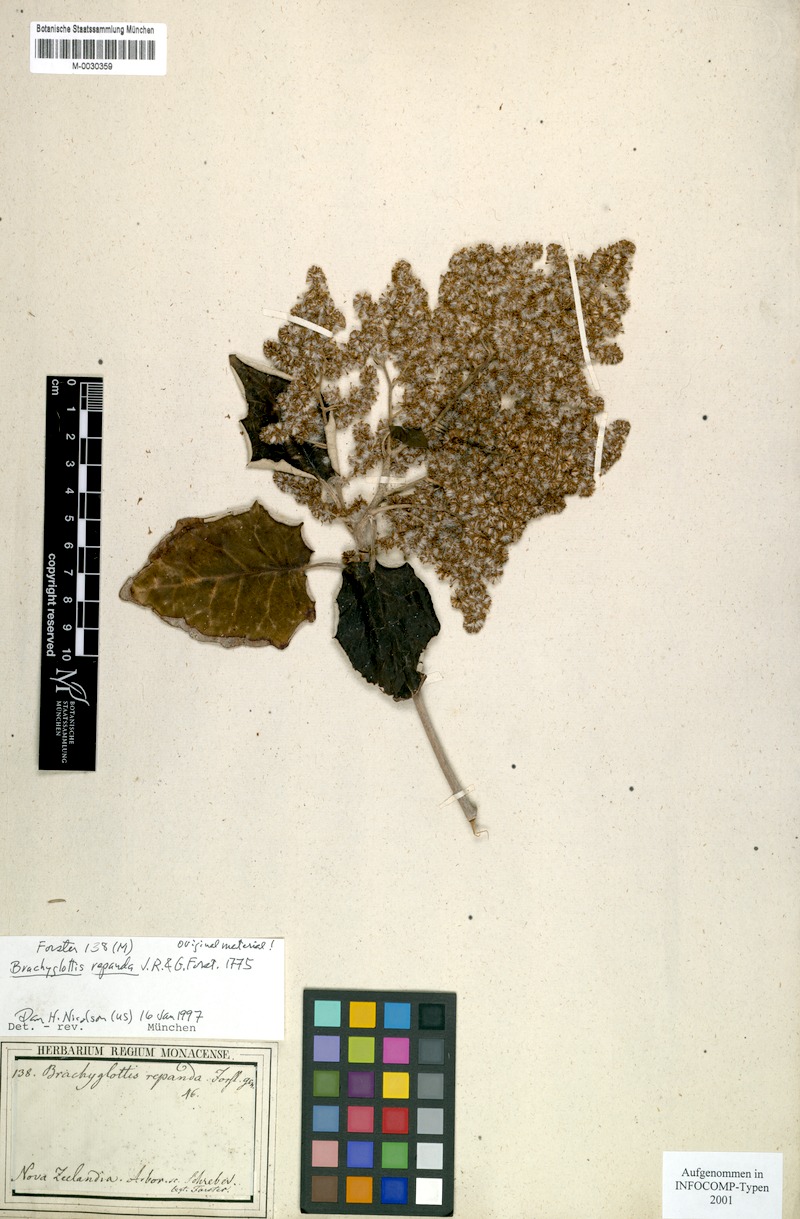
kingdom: Plantae
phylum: Tracheophyta
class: Magnoliopsida
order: Asterales
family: Asteraceae
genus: Brachyglottis
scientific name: Brachyglottis repanda
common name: Hedge ragwort
